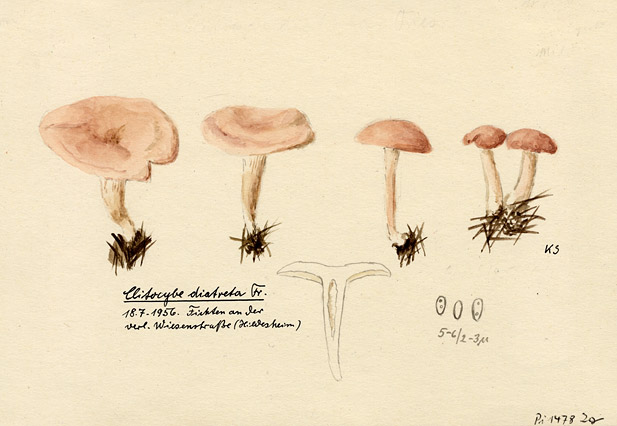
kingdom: Fungi
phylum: Basidiomycota
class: Agaricomycetes
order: Agaricales
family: Tricholomataceae
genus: Clitocybe
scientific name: Clitocybe diatreta
